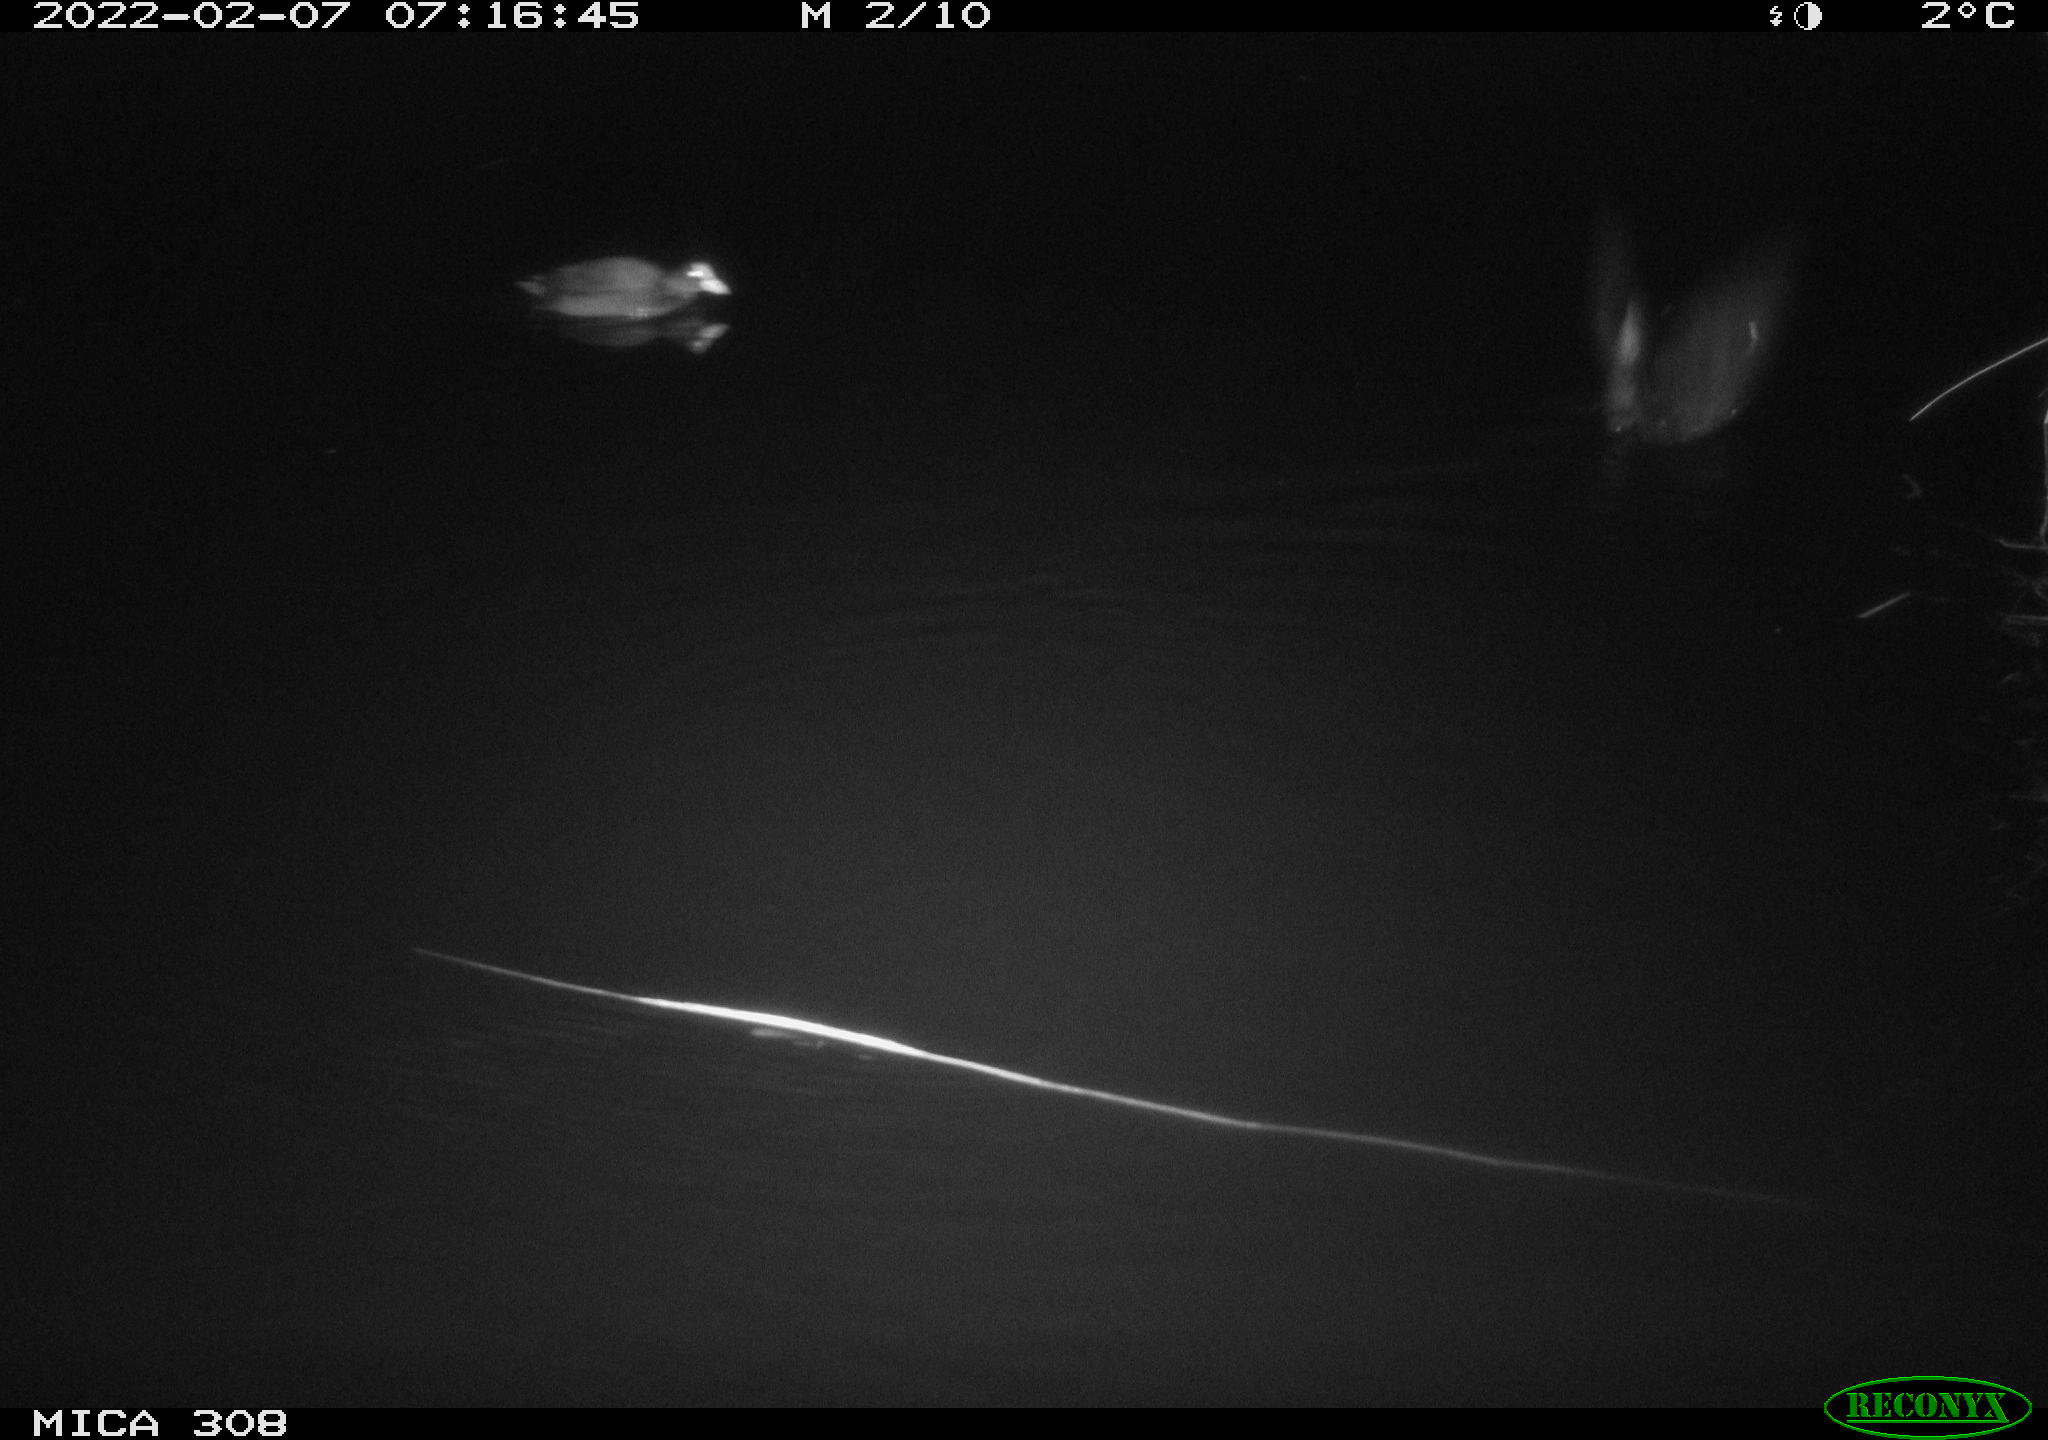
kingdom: Animalia
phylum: Chordata
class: Aves
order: Gruiformes
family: Rallidae
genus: Fulica
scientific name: Fulica atra
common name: Eurasian coot
